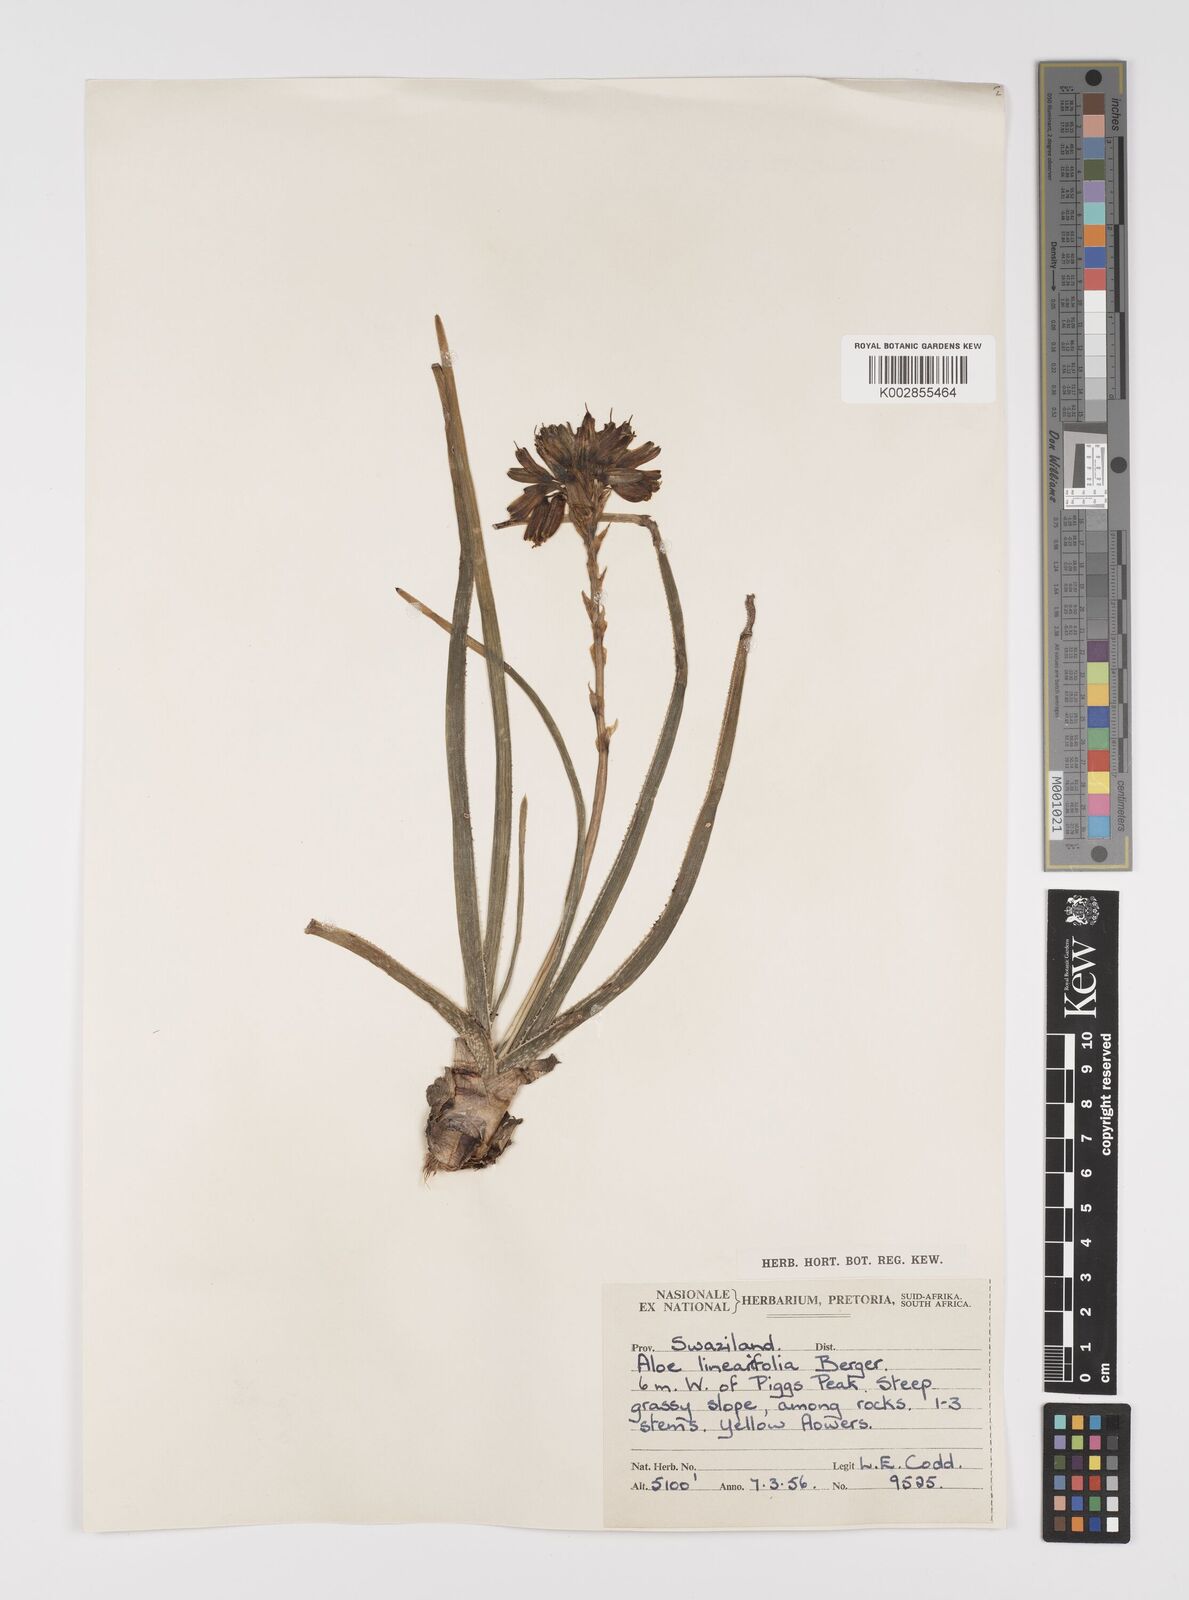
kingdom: Plantae
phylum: Tracheophyta
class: Liliopsida
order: Asparagales
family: Asphodelaceae
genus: Aloe
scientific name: Aloe linearifolia
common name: Dwarf yellow grass aloe
